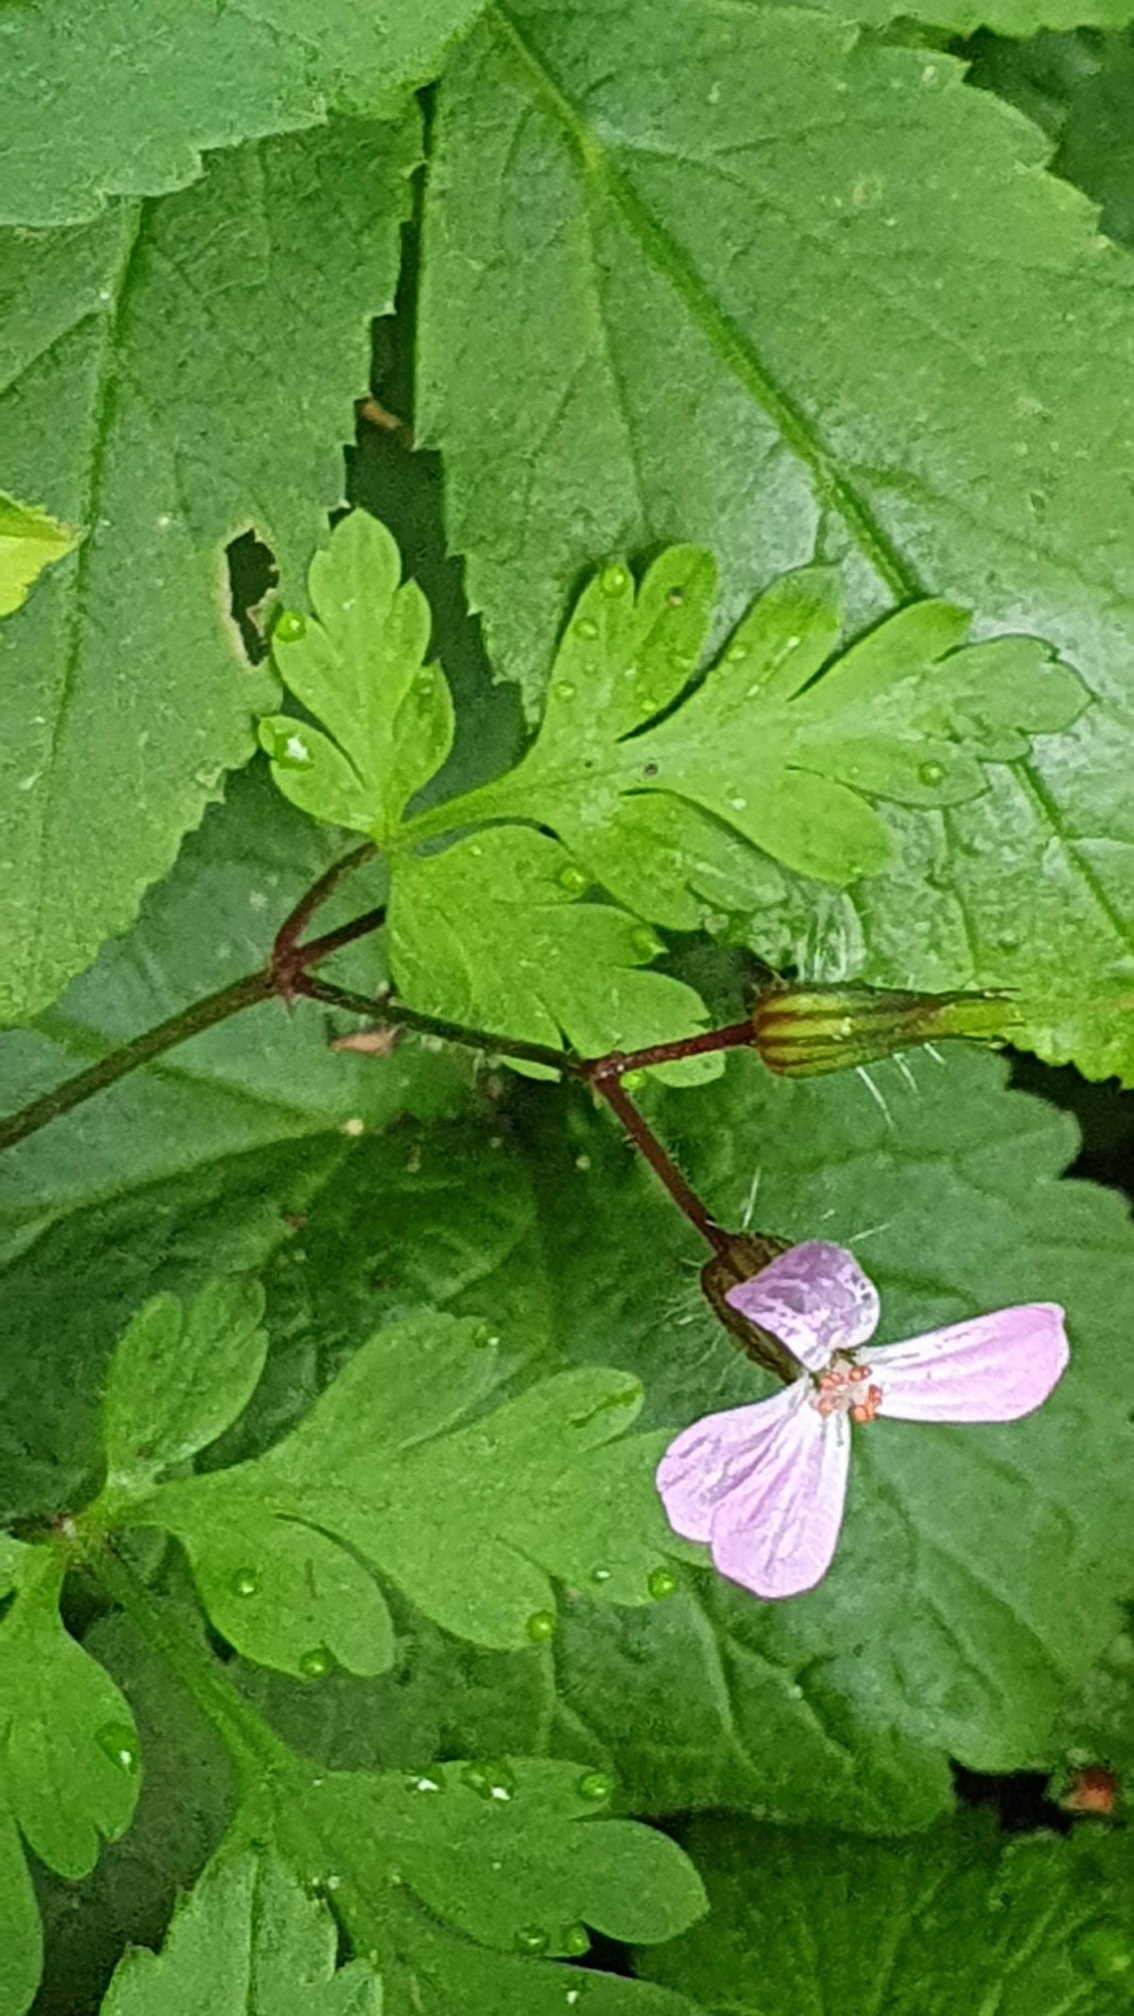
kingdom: Plantae
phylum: Tracheophyta
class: Magnoliopsida
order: Geraniales
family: Geraniaceae
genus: Geranium
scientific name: Geranium robertianum
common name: Stinkende storkenæb
